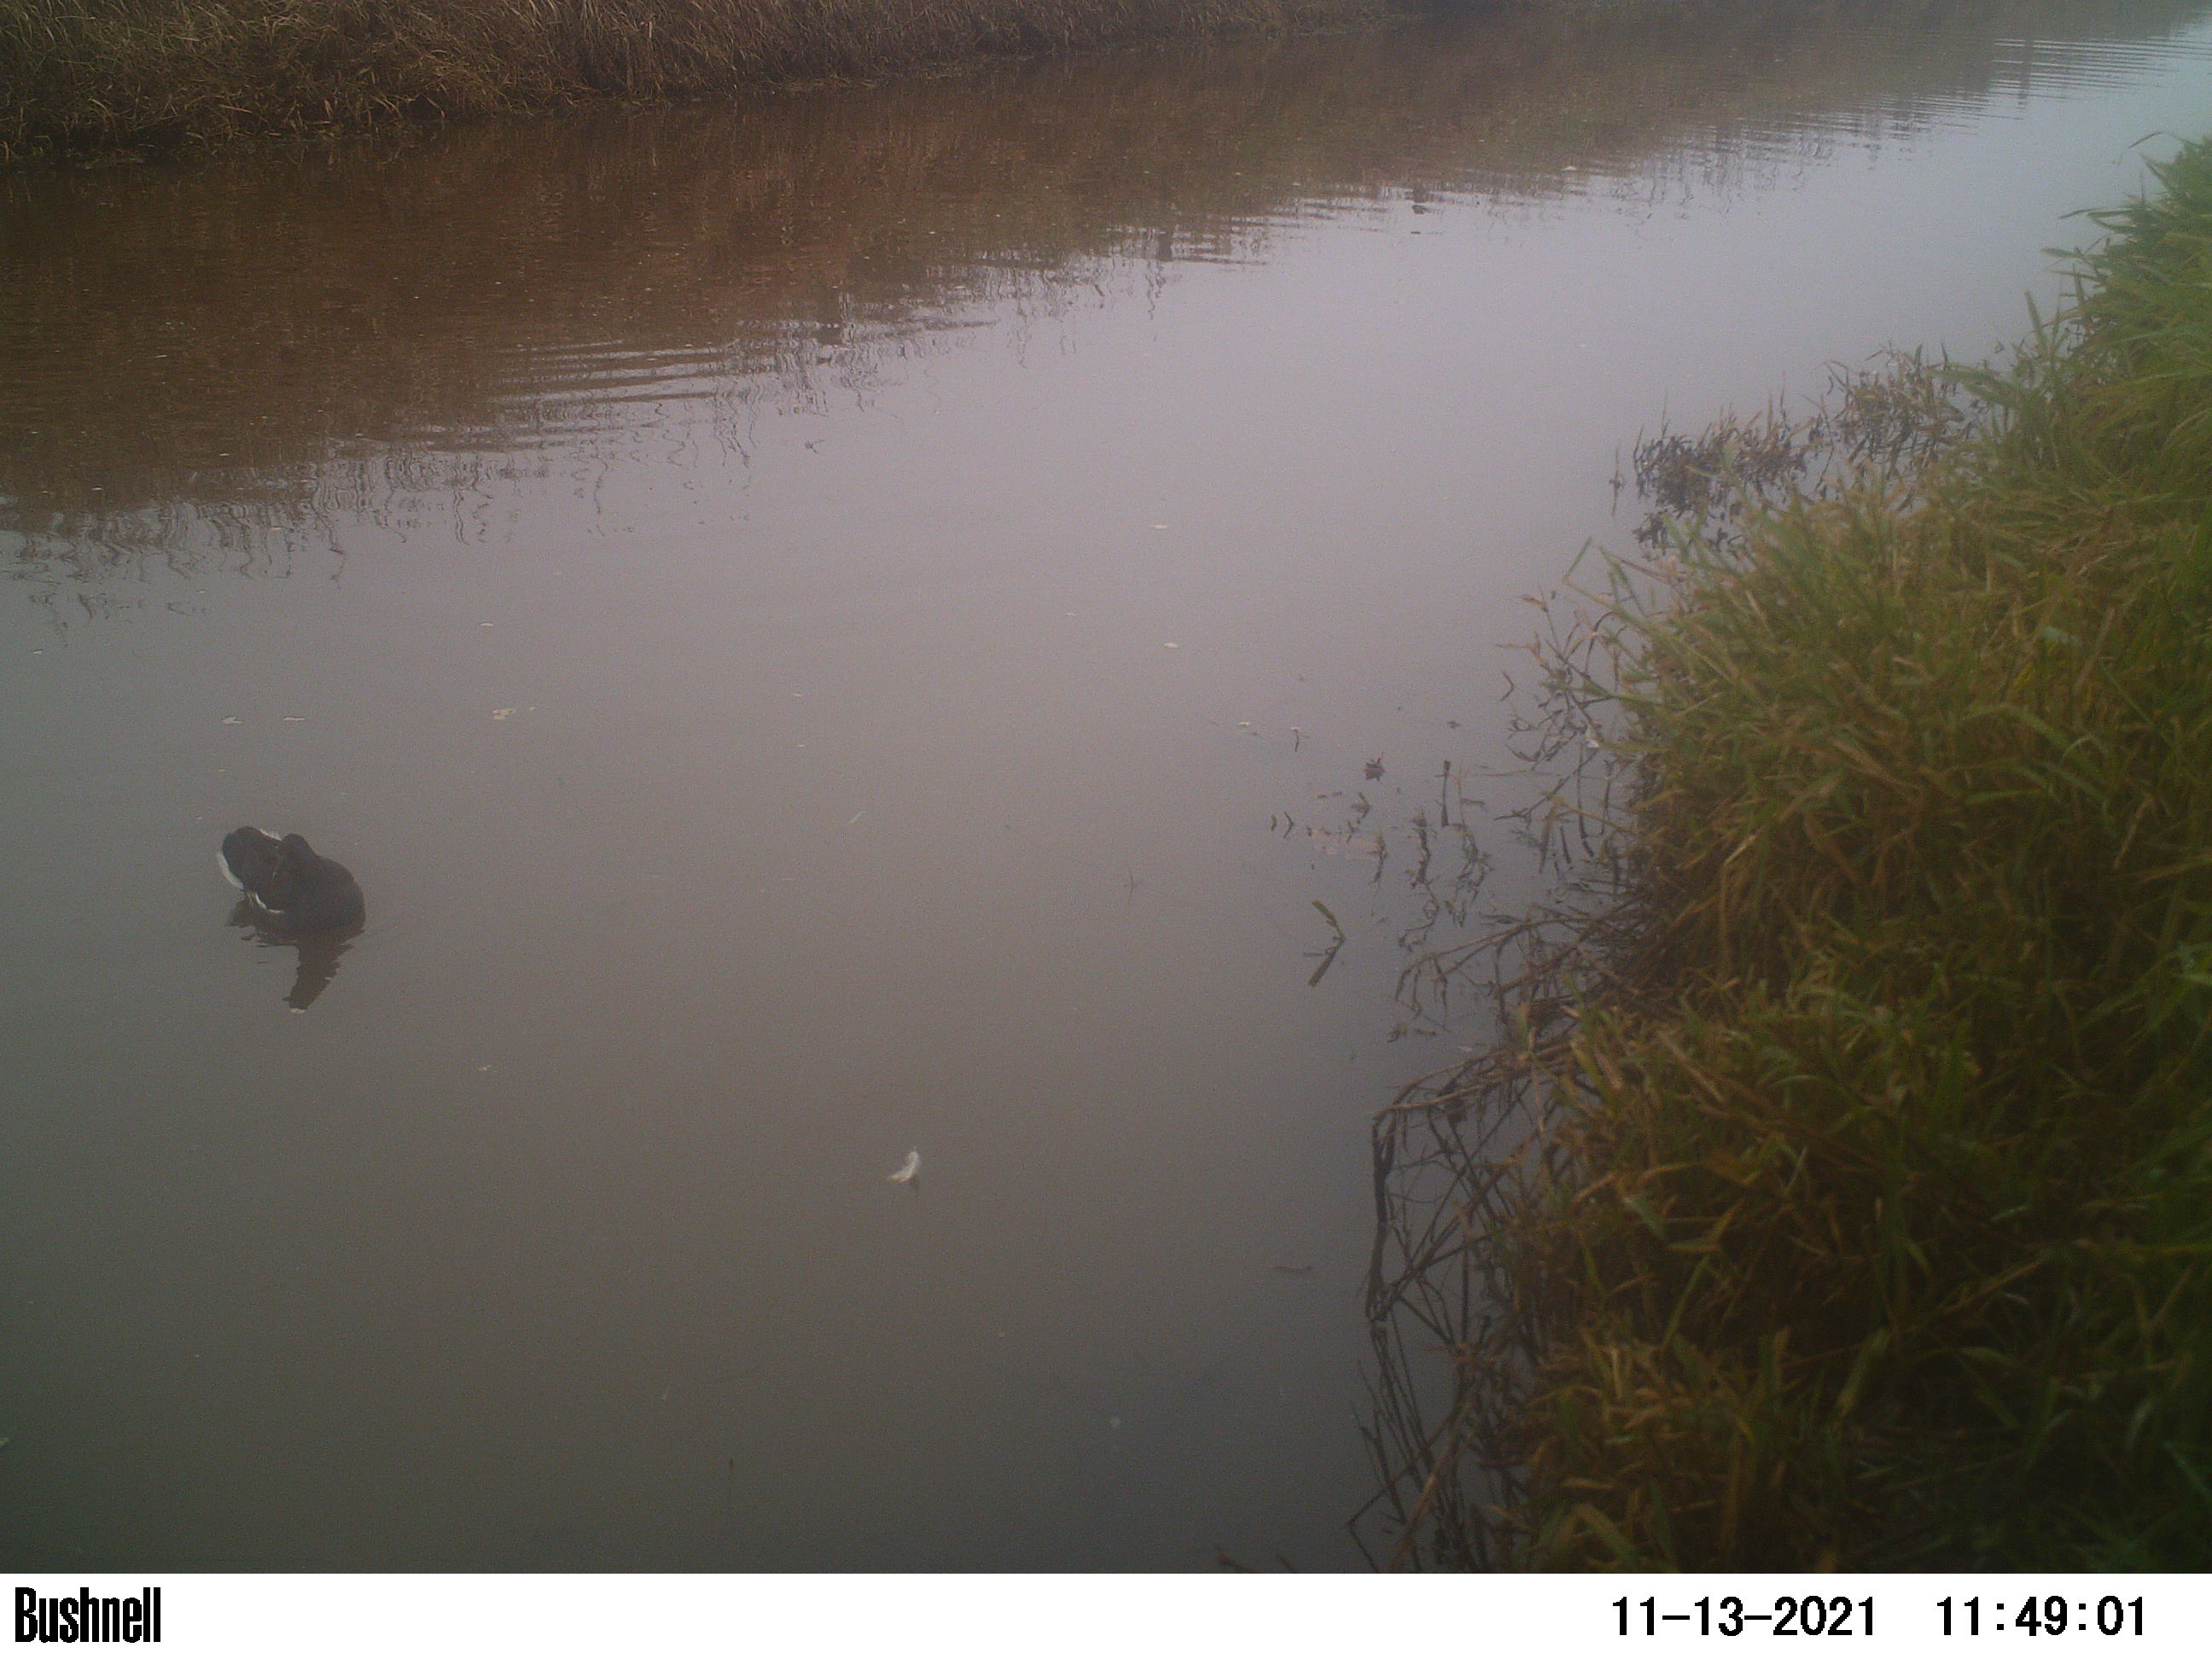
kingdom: Animalia
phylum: Chordata
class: Aves
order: Gruiformes
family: Rallidae
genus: Gallinula
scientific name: Gallinula chloropus
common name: Common moorhen
